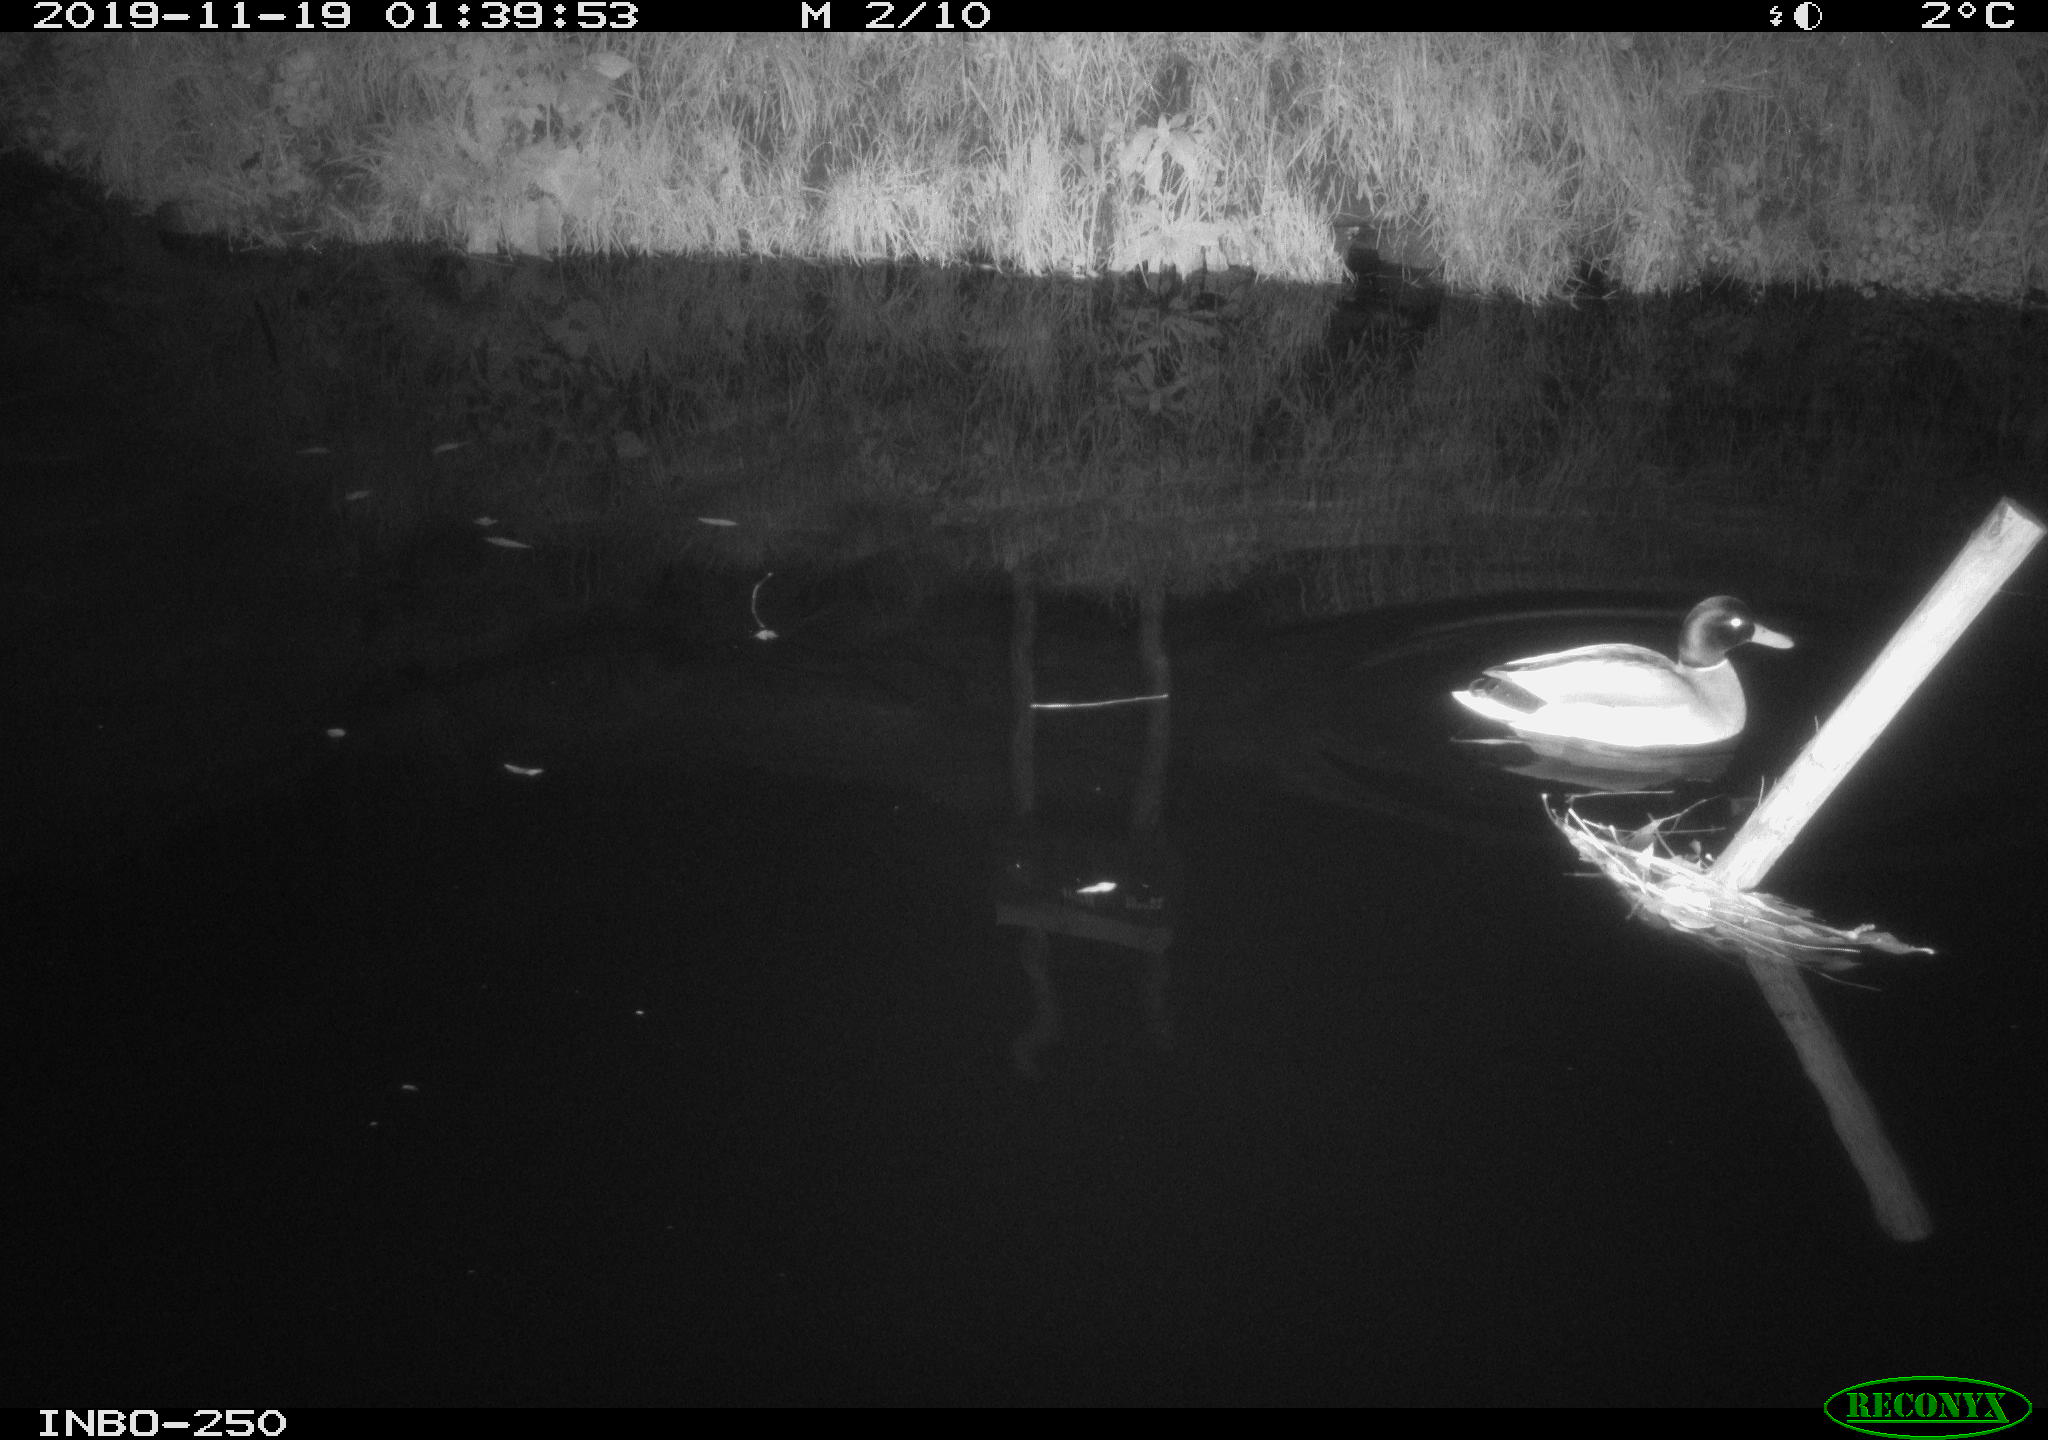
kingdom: Animalia
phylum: Chordata
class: Aves
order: Anseriformes
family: Anatidae
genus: Anas
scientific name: Anas platyrhynchos
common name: Mallard
